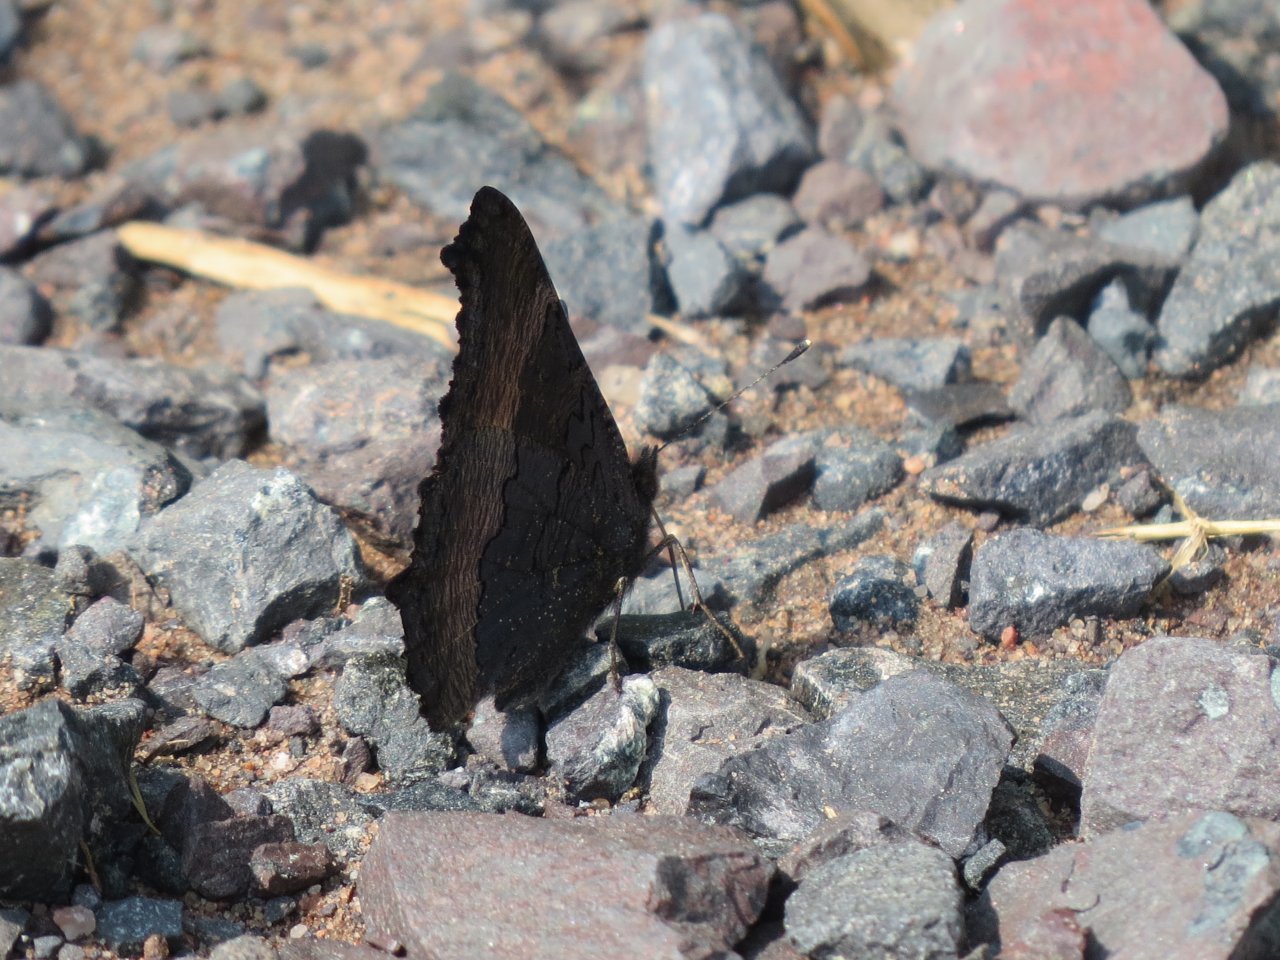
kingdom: Animalia
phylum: Arthropoda
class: Insecta
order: Lepidoptera
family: Nymphalidae
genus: Aglais
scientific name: Aglais milberti
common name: Milbert's Tortoiseshell
